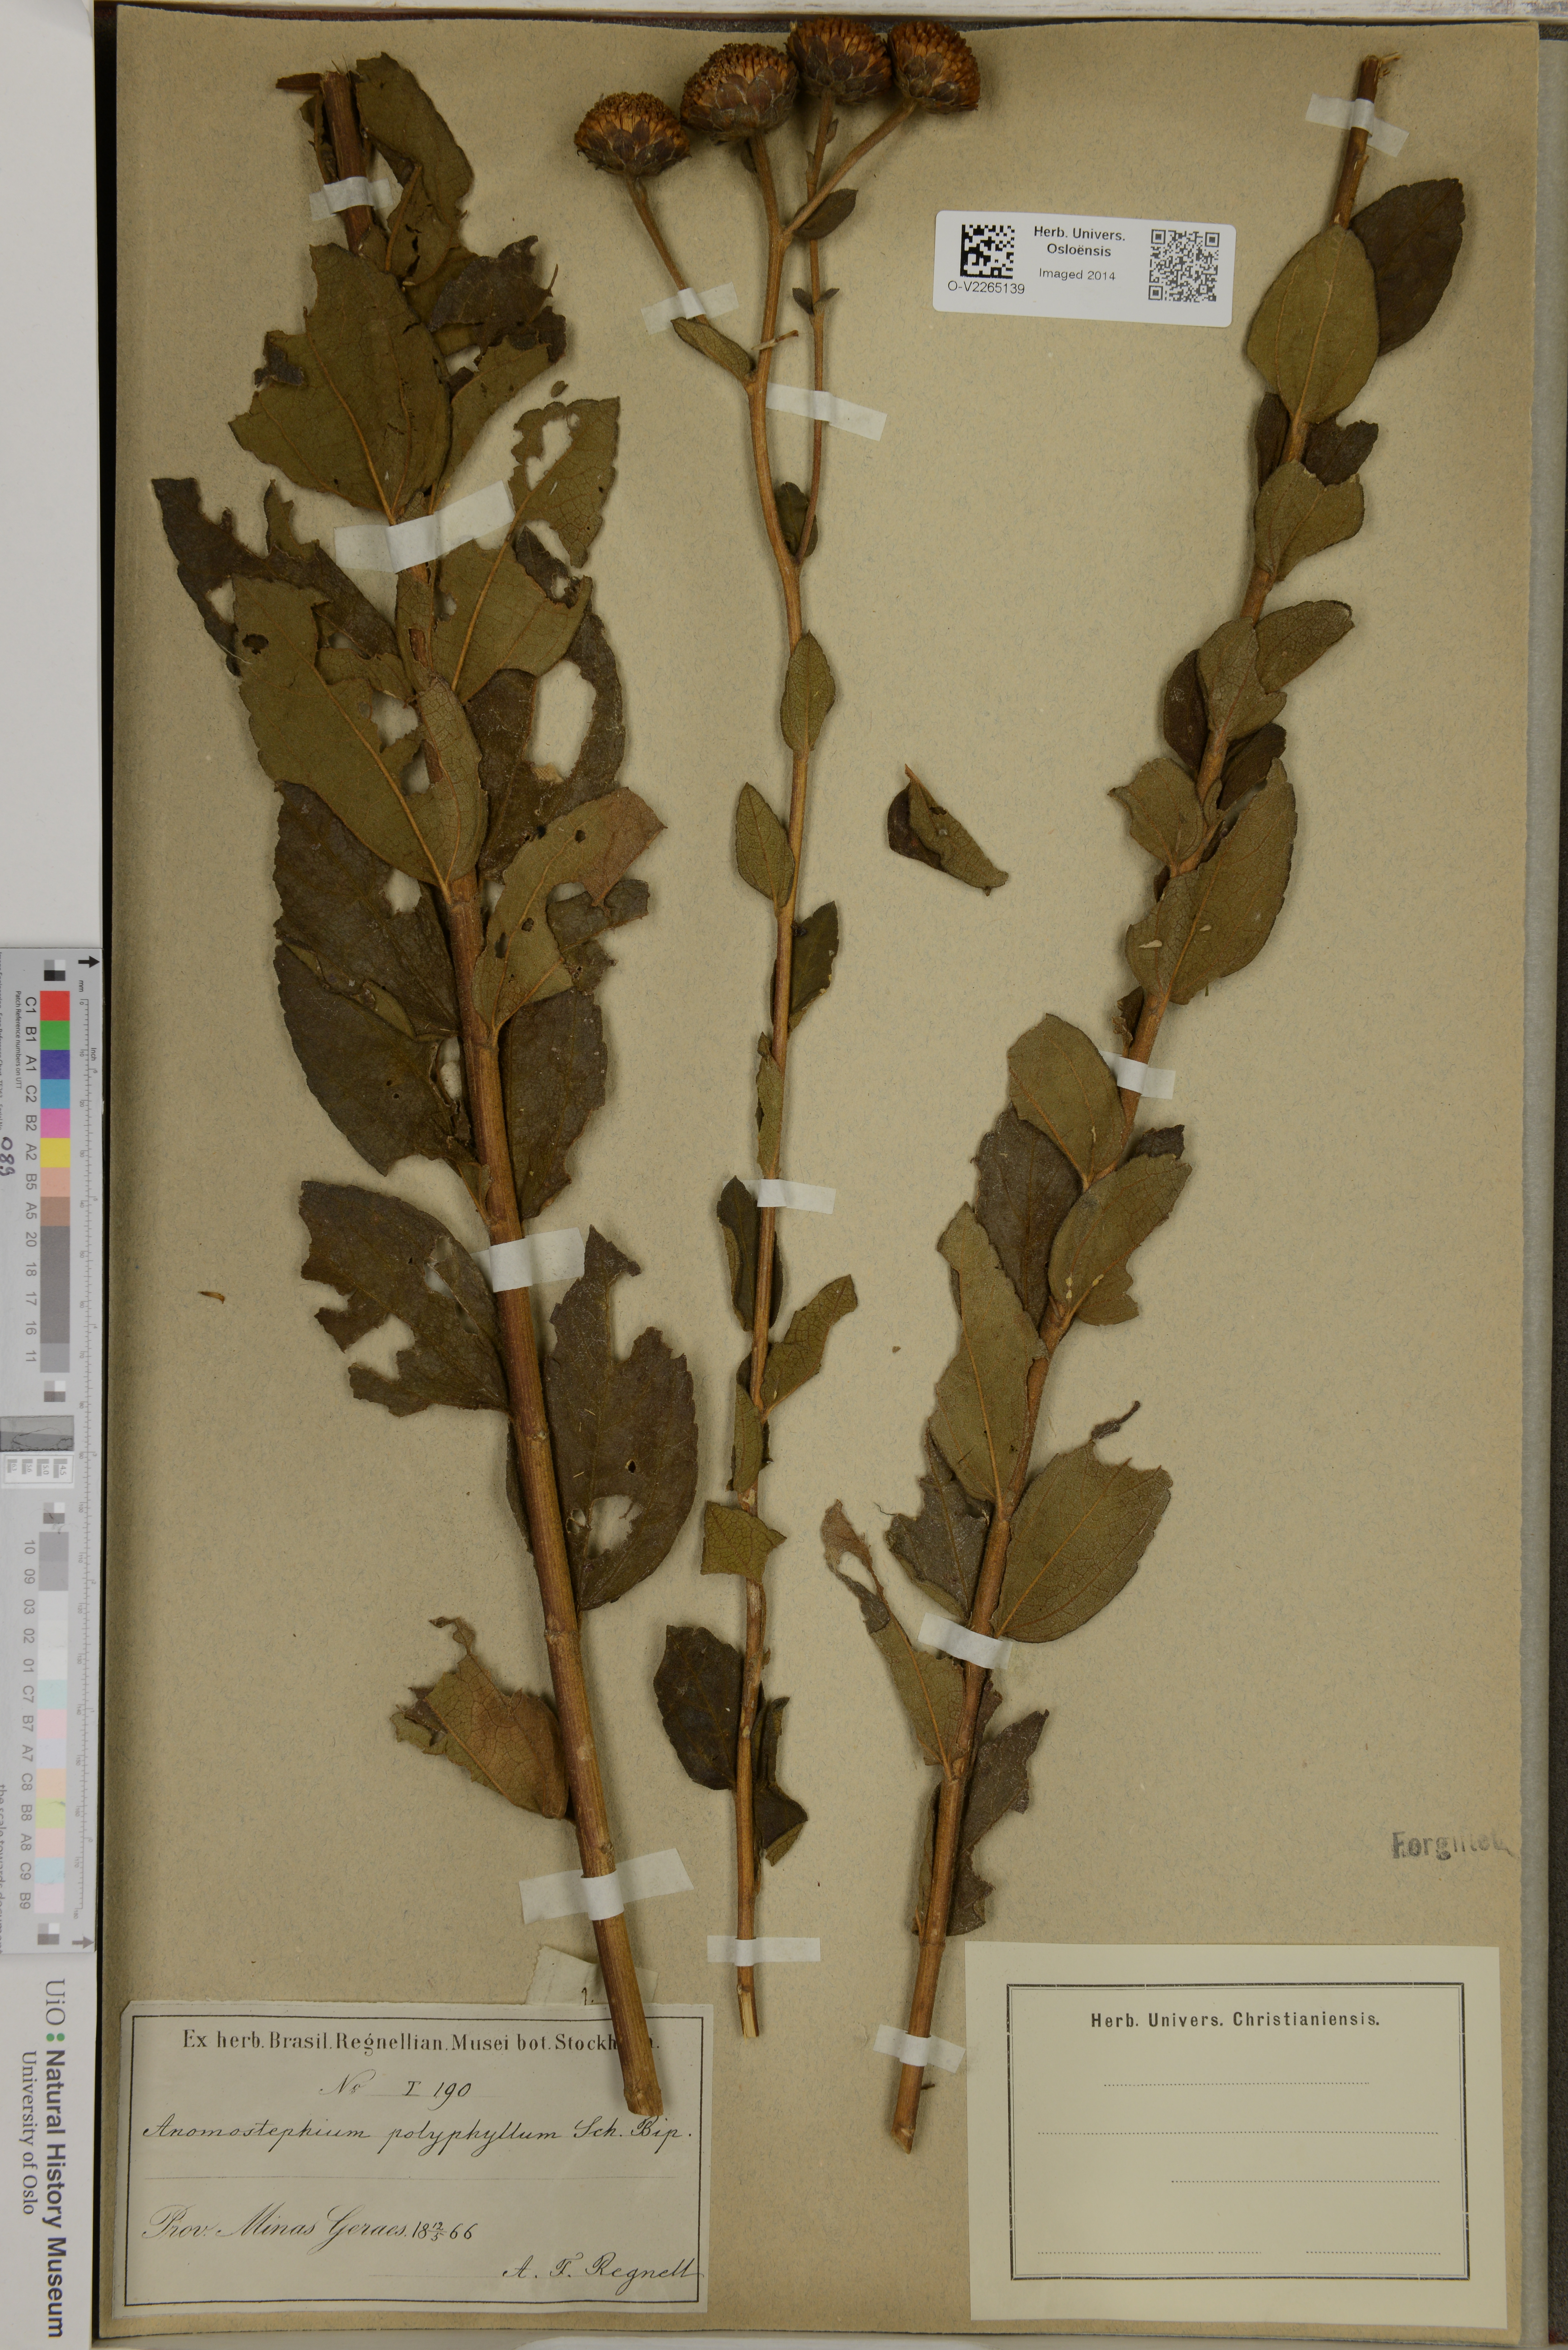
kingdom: Plantae
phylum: Tracheophyta
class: Magnoliopsida
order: Asterales
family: Asteraceae
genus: Aspilia
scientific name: Aspilia
